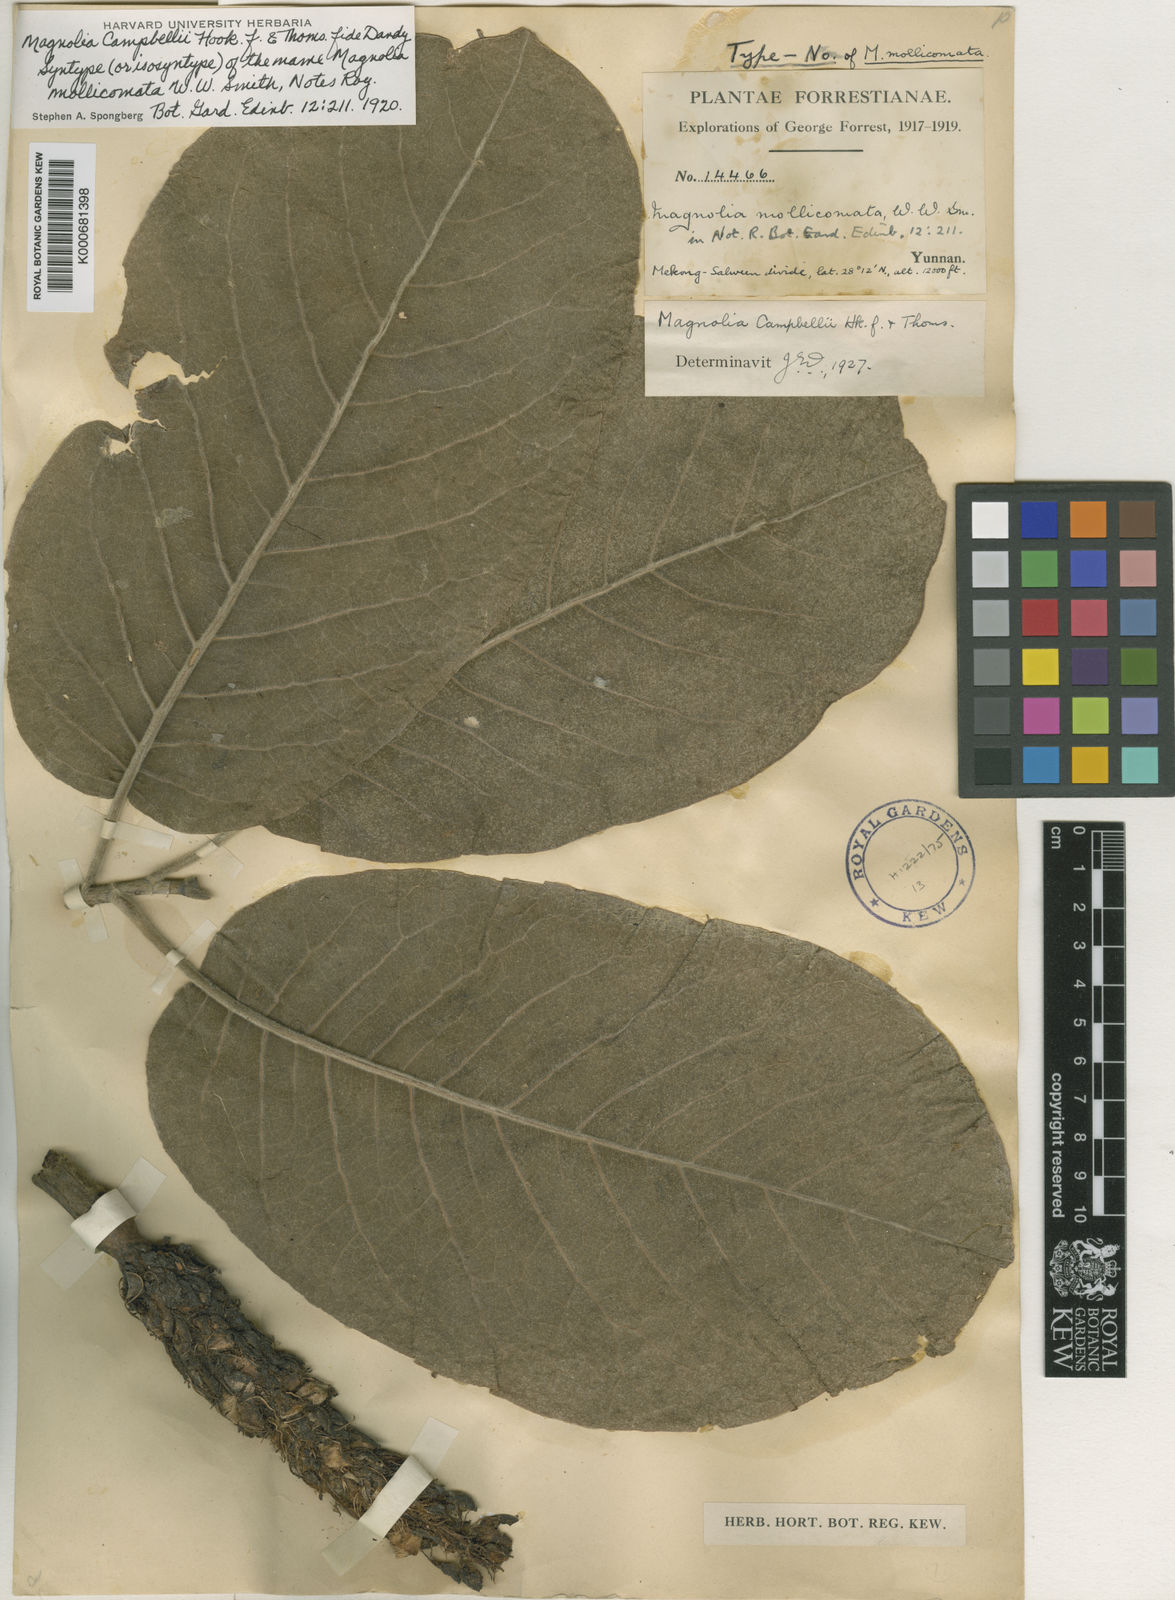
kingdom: Plantae
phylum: Tracheophyta
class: Magnoliopsida
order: Magnoliales
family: Magnoliaceae
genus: Magnolia
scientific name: Magnolia campbellii
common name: Campbell's magnolia
